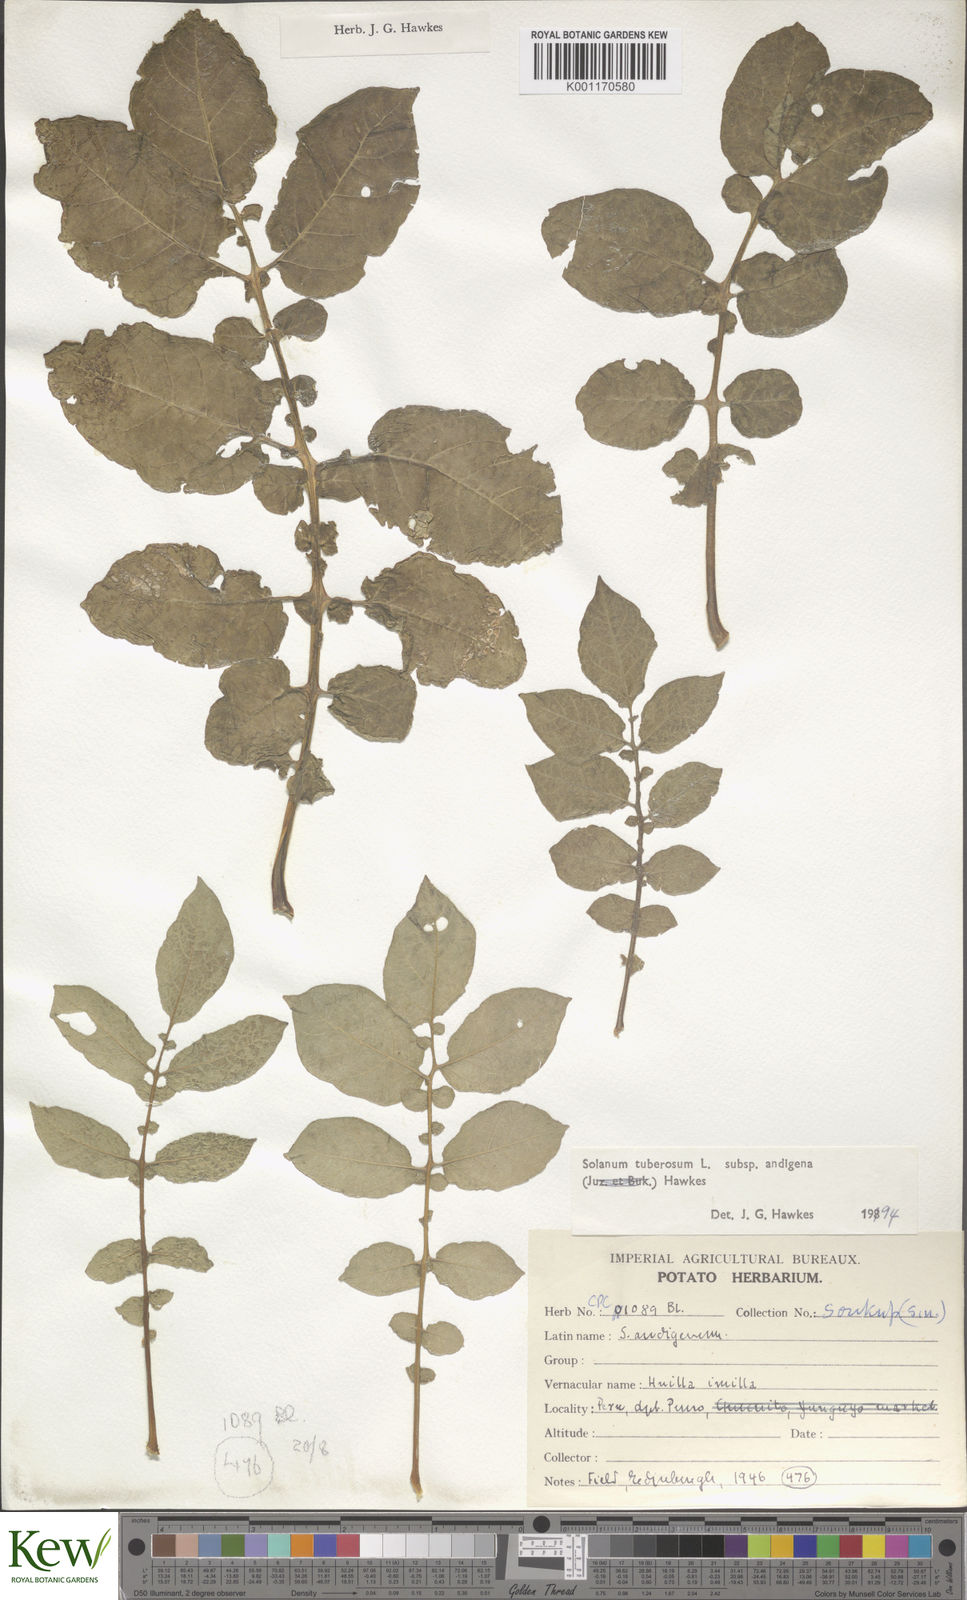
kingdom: Plantae
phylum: Tracheophyta
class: Magnoliopsida
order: Solanales
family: Solanaceae
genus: Solanum
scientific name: Solanum tuberosum
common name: Potato
